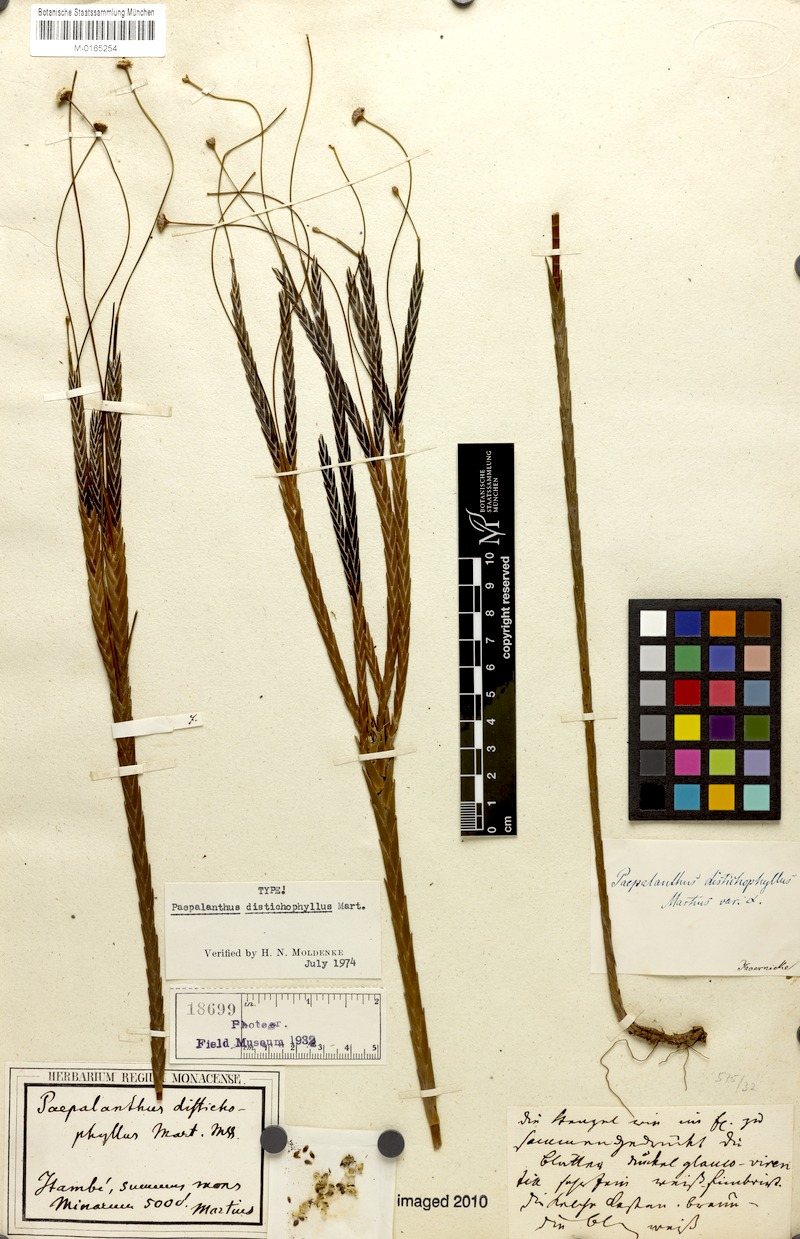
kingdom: Plantae
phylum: Tracheophyta
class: Liliopsida
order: Poales
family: Eriocaulaceae
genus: Paepalanthus
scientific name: Paepalanthus distichophyllus
